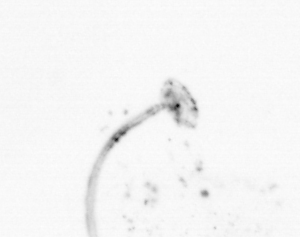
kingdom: Animalia
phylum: Chordata
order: Copelata
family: Fritillariidae
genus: Appendicularia
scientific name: Appendicularia
